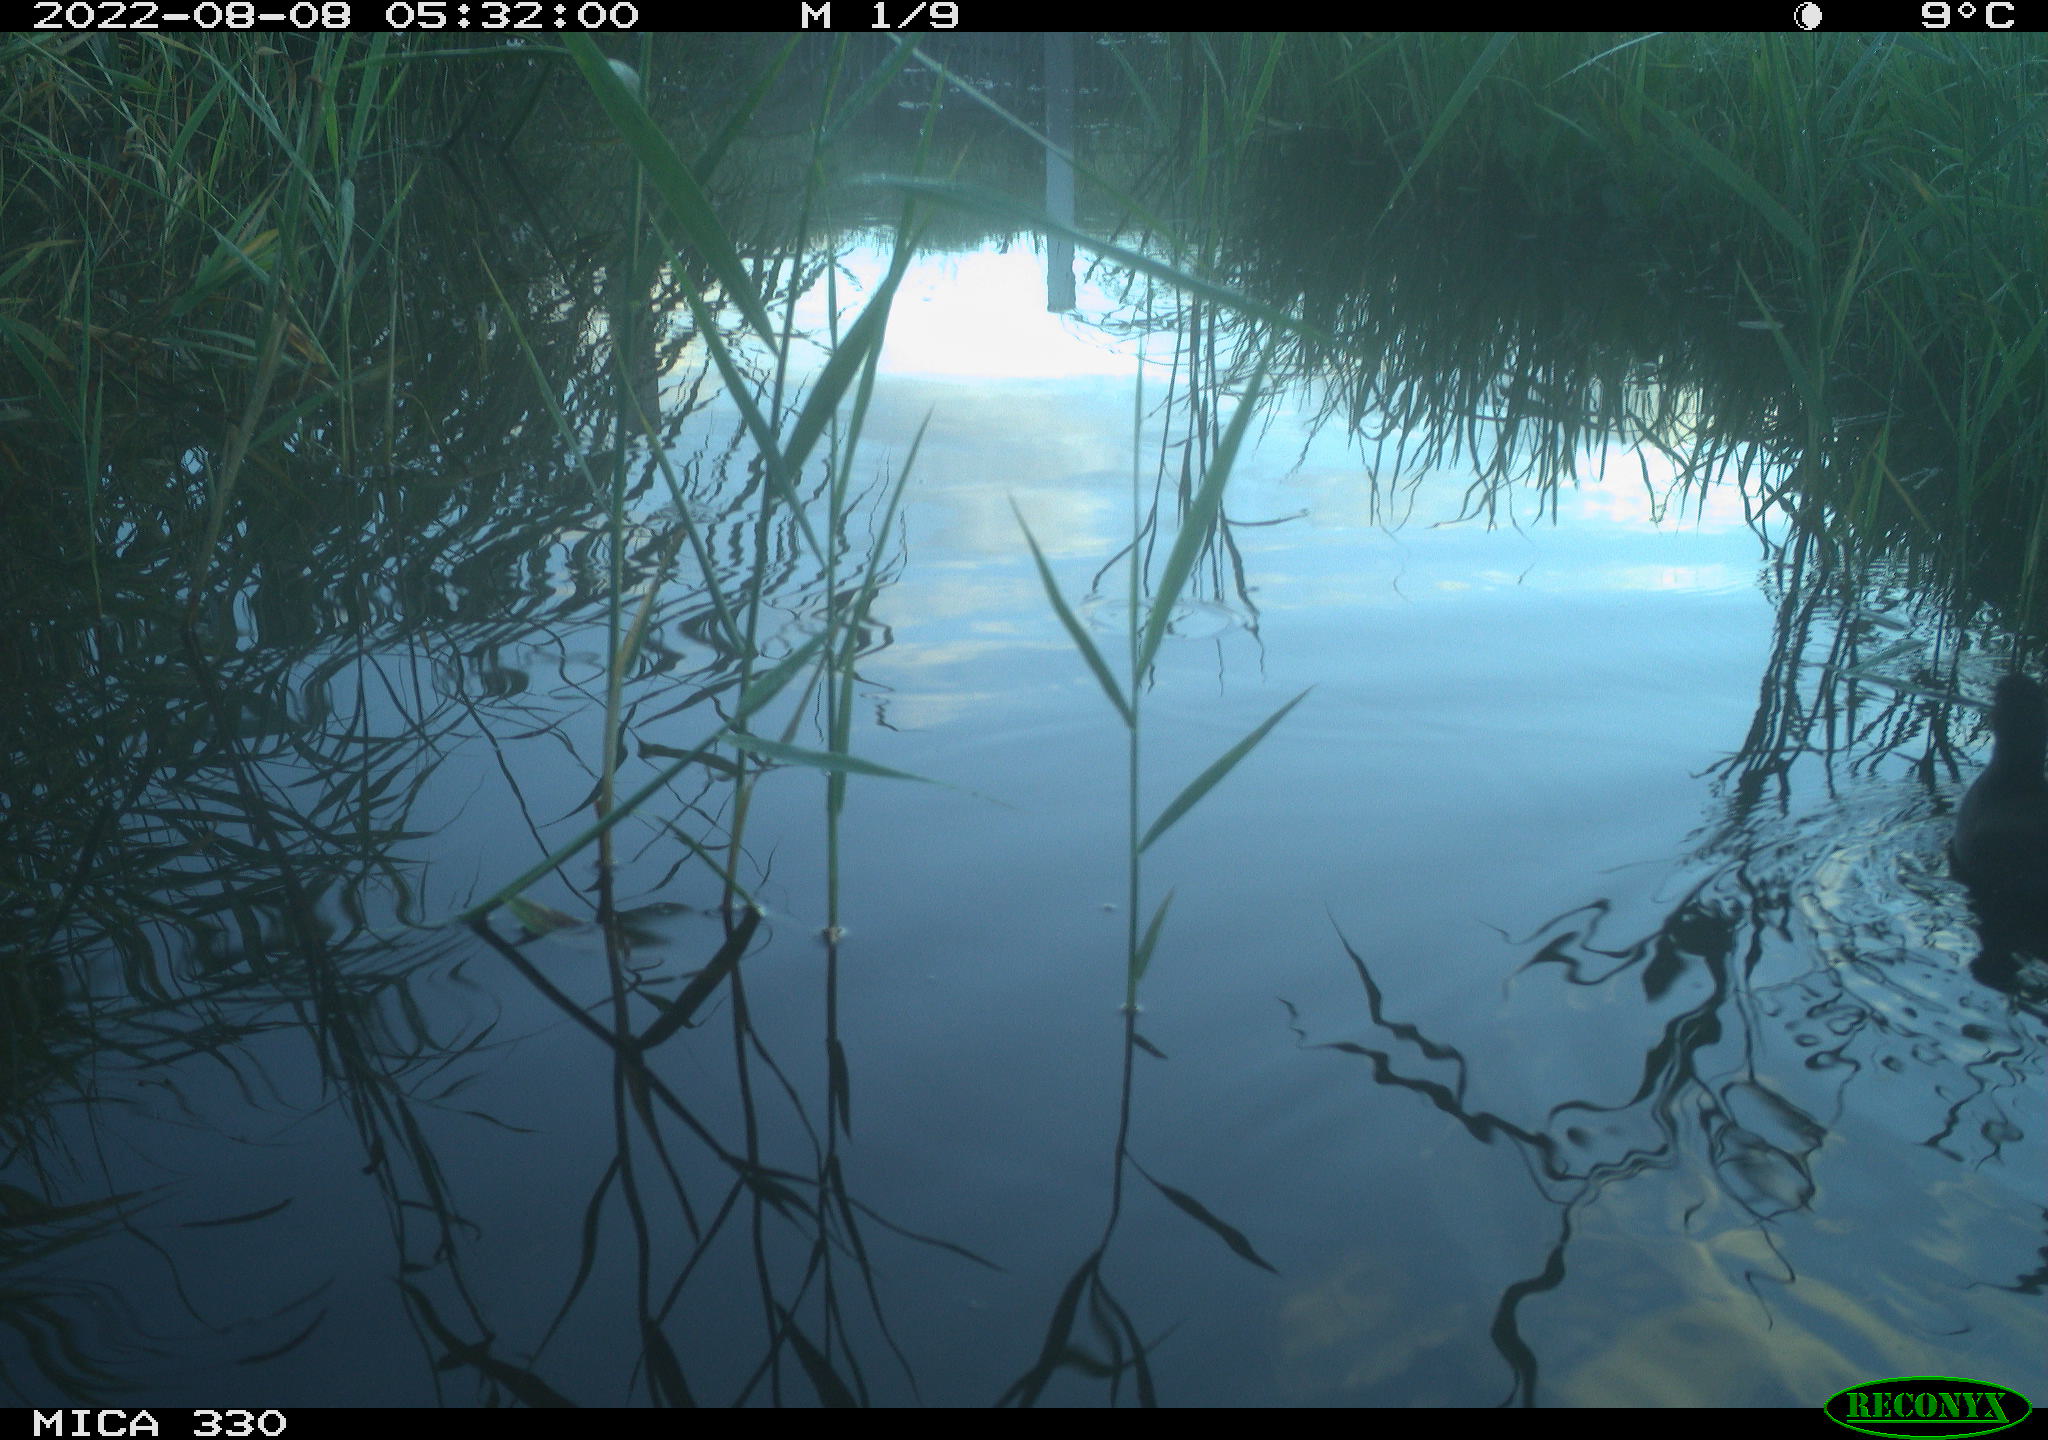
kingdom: Animalia
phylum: Chordata
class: Aves
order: Gruiformes
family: Rallidae
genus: Gallinula
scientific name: Gallinula chloropus
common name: Common moorhen
